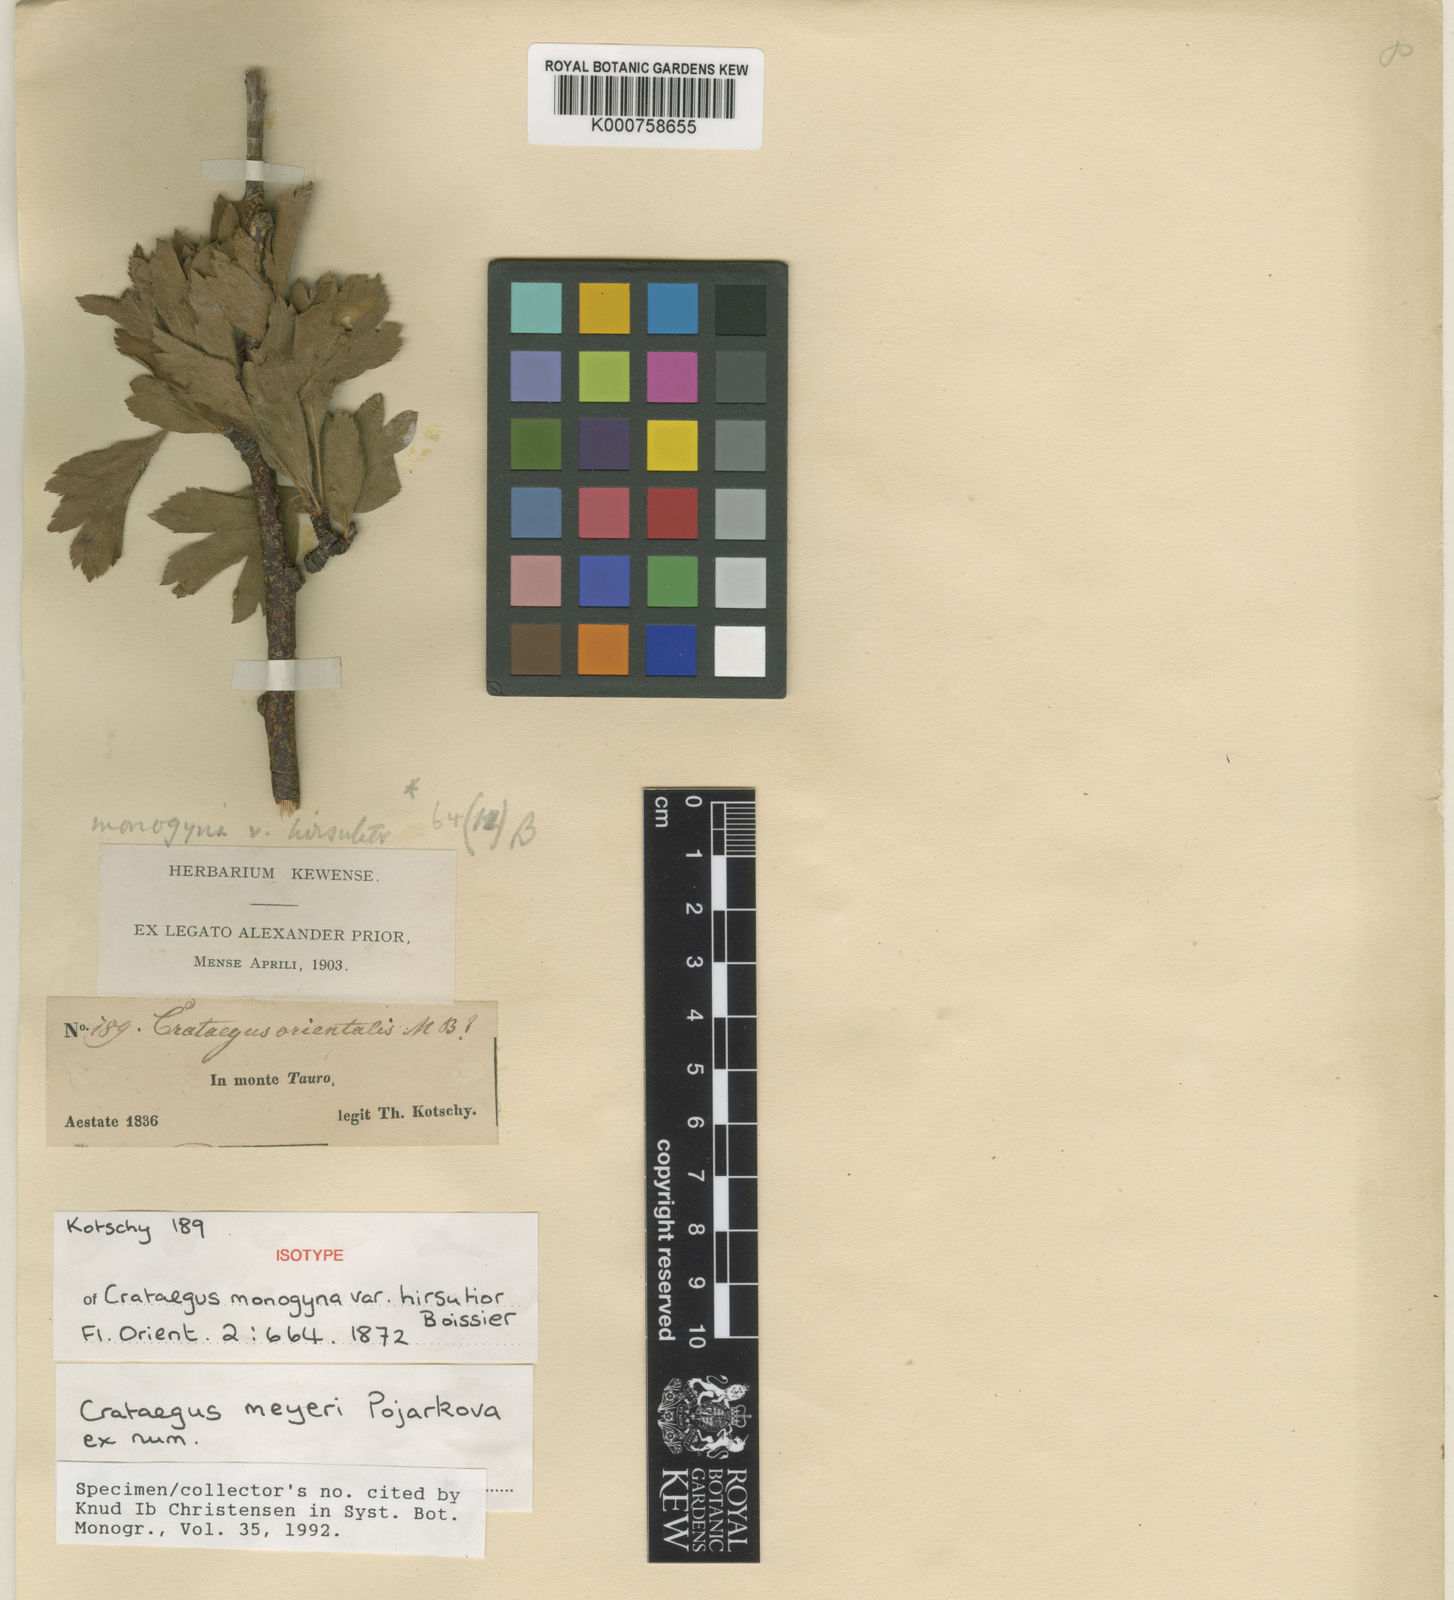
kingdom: Plantae
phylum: Tracheophyta
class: Magnoliopsida
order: Rosales
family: Rosaceae
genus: Crataegus
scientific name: Crataegus meyeri
